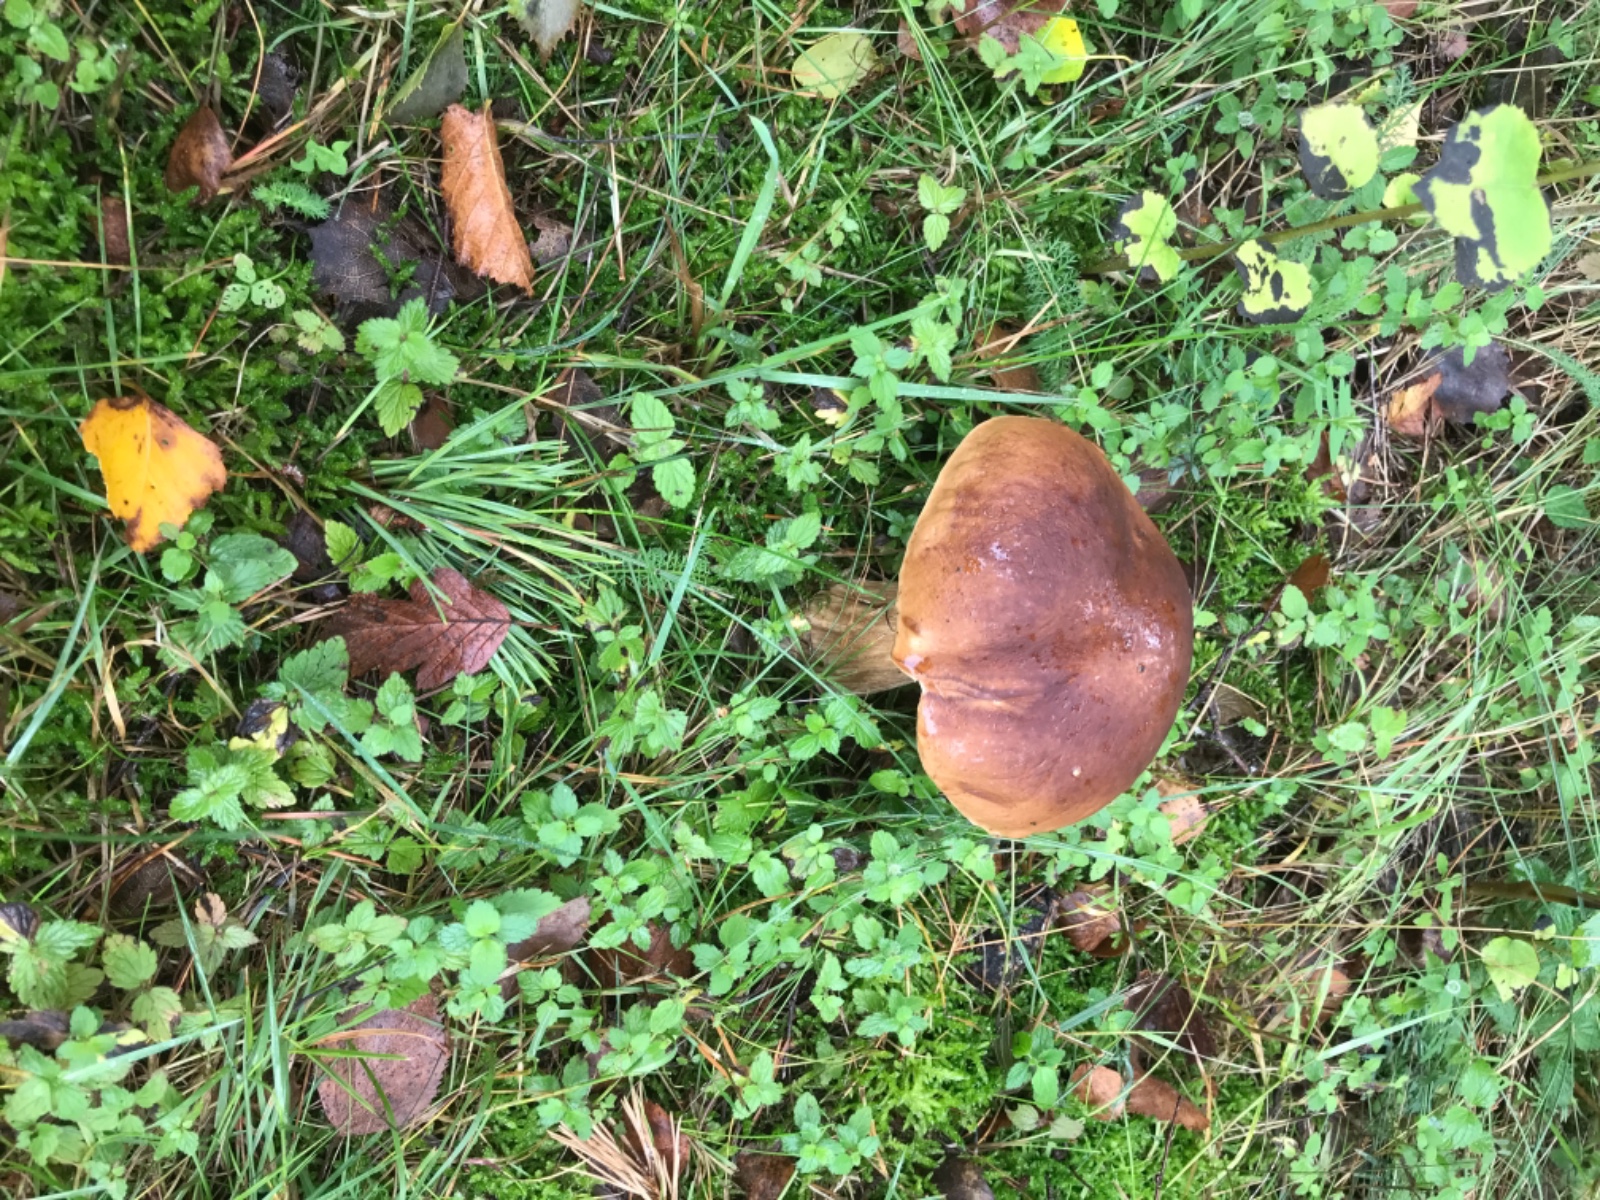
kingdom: Fungi
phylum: Basidiomycota
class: Agaricomycetes
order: Boletales
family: Boletaceae
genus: Boletus
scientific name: Boletus edulis
